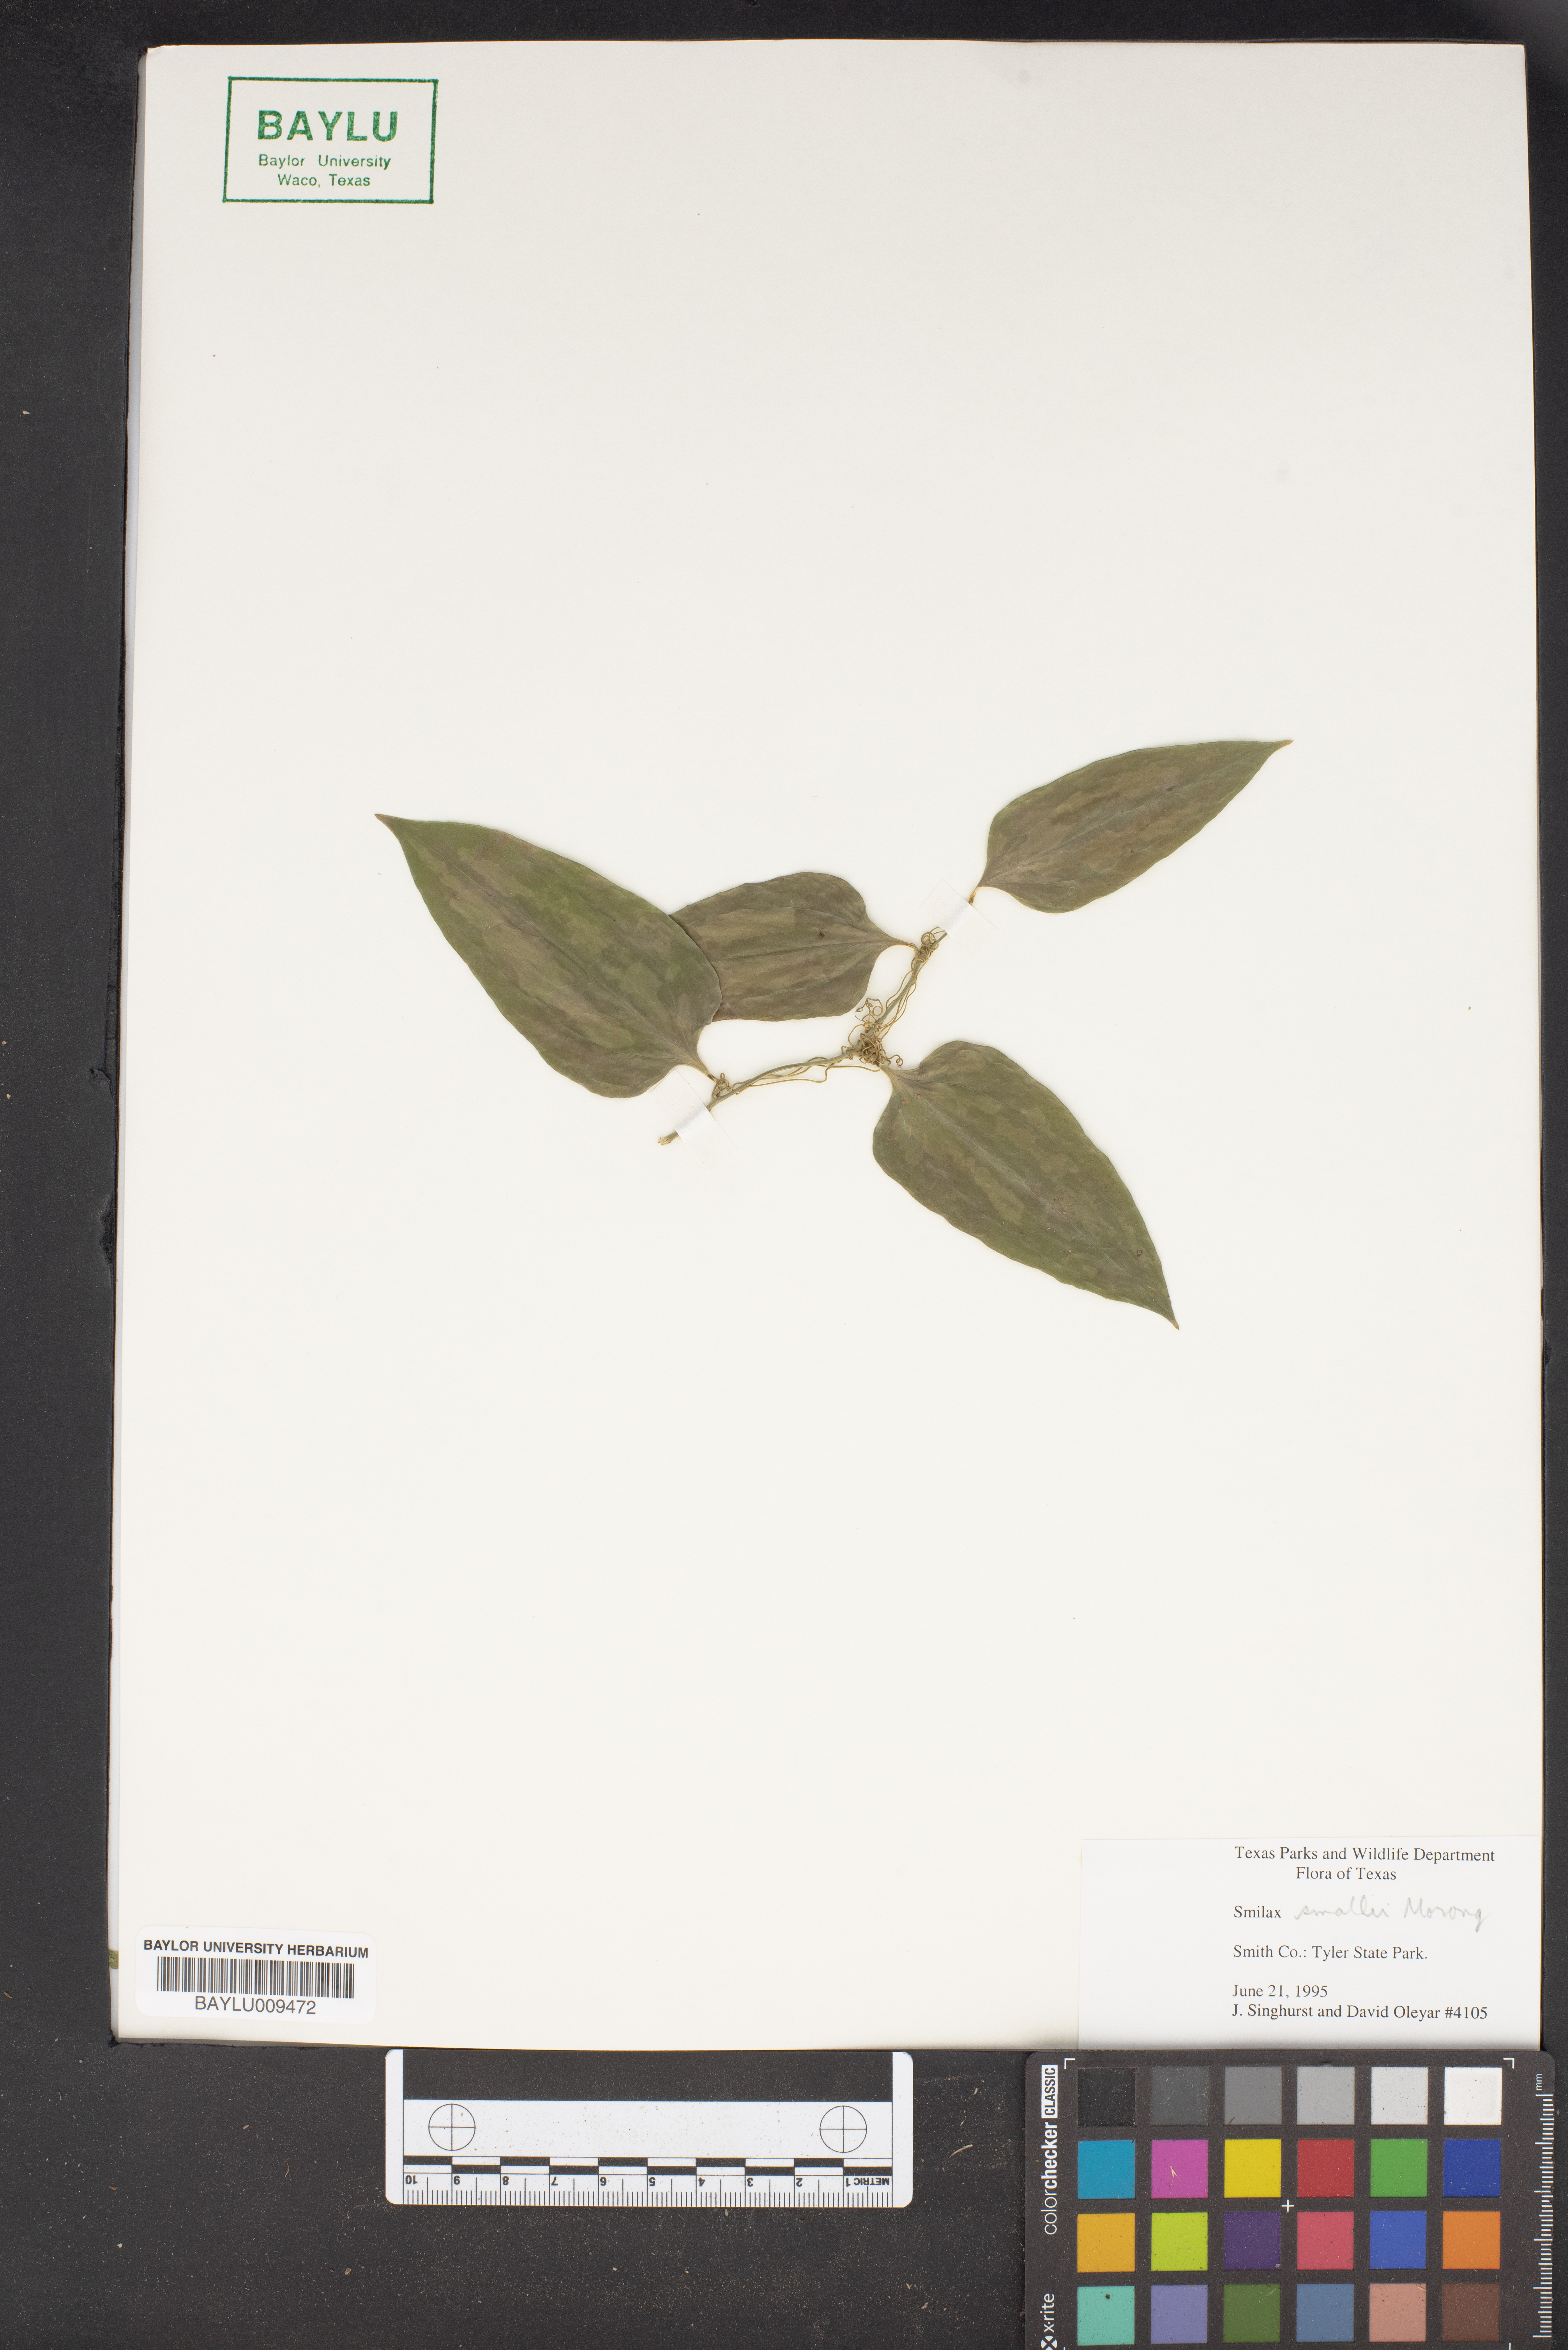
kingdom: Plantae
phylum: Tracheophyta
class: Liliopsida
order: Liliales
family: Smilacaceae
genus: Smilax
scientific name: Smilax maritima
